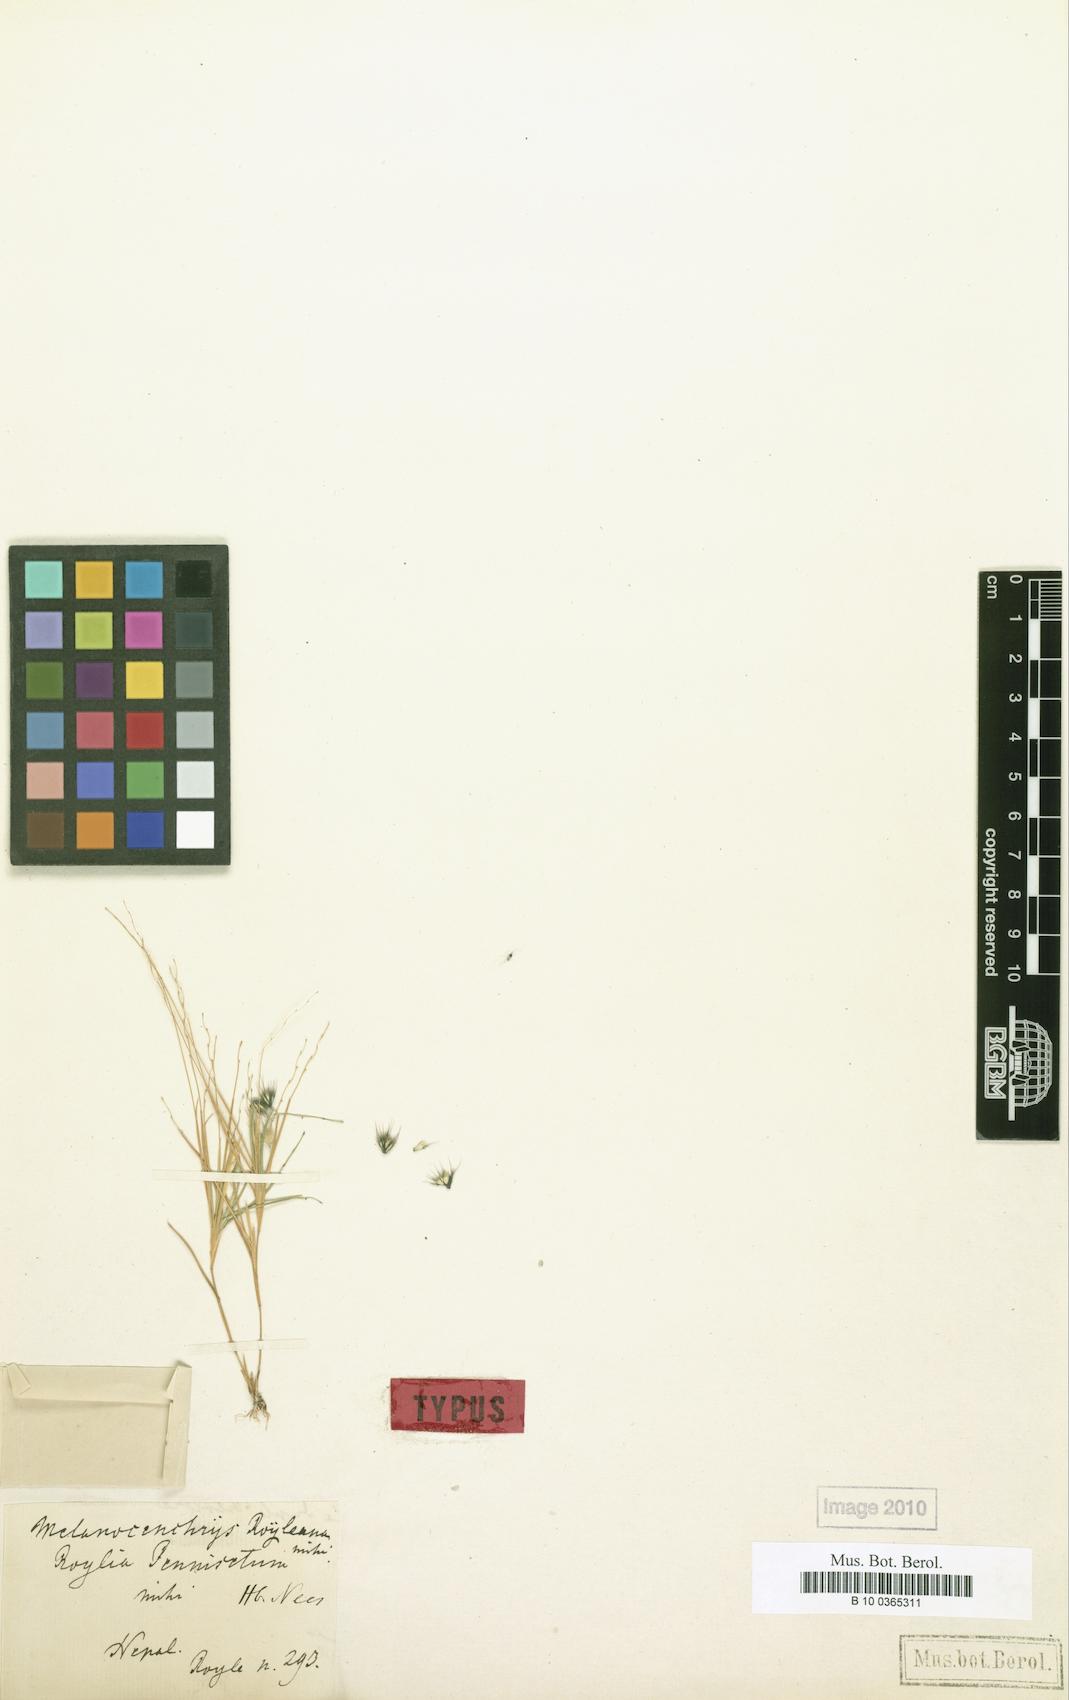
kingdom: Plantae
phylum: Tracheophyta
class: Liliopsida
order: Poales
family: Poaceae
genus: Melanocenchris
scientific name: Melanocenchris jacquemontii
